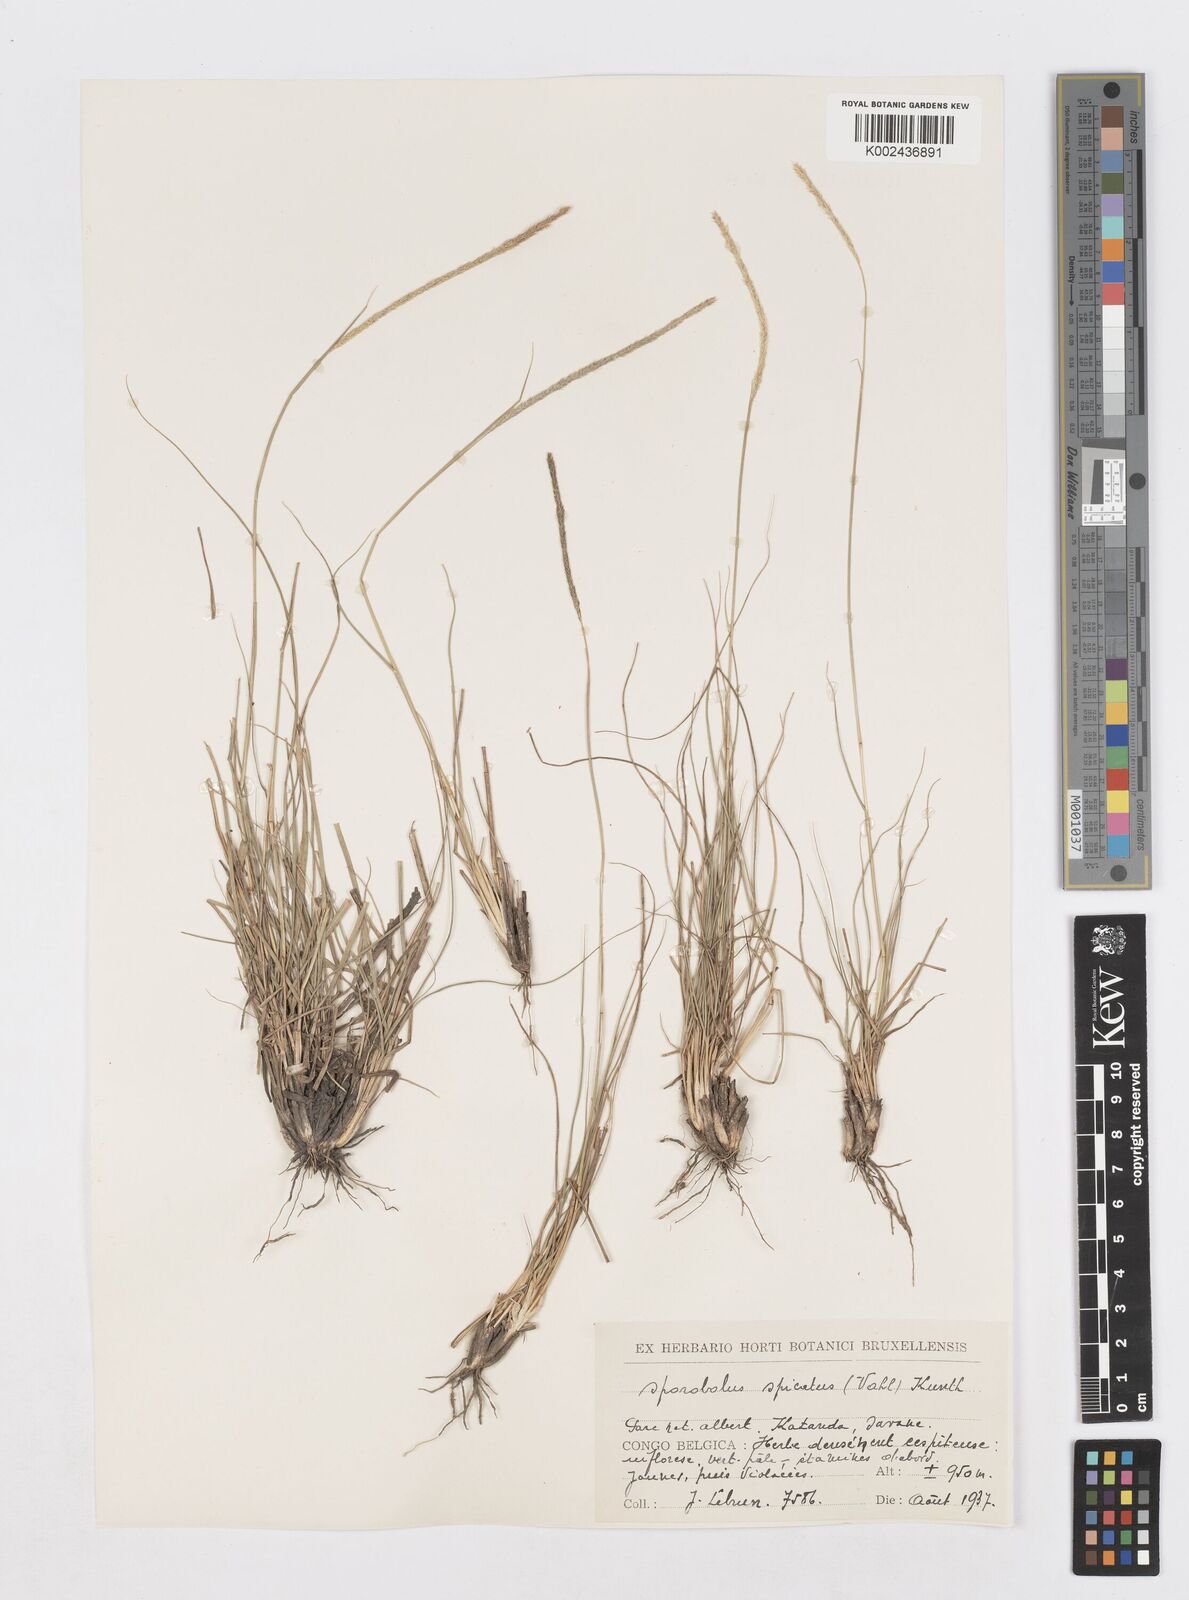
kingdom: Plantae
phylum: Tracheophyta
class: Liliopsida
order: Poales
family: Poaceae
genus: Sporobolus
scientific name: Sporobolus spicatus
